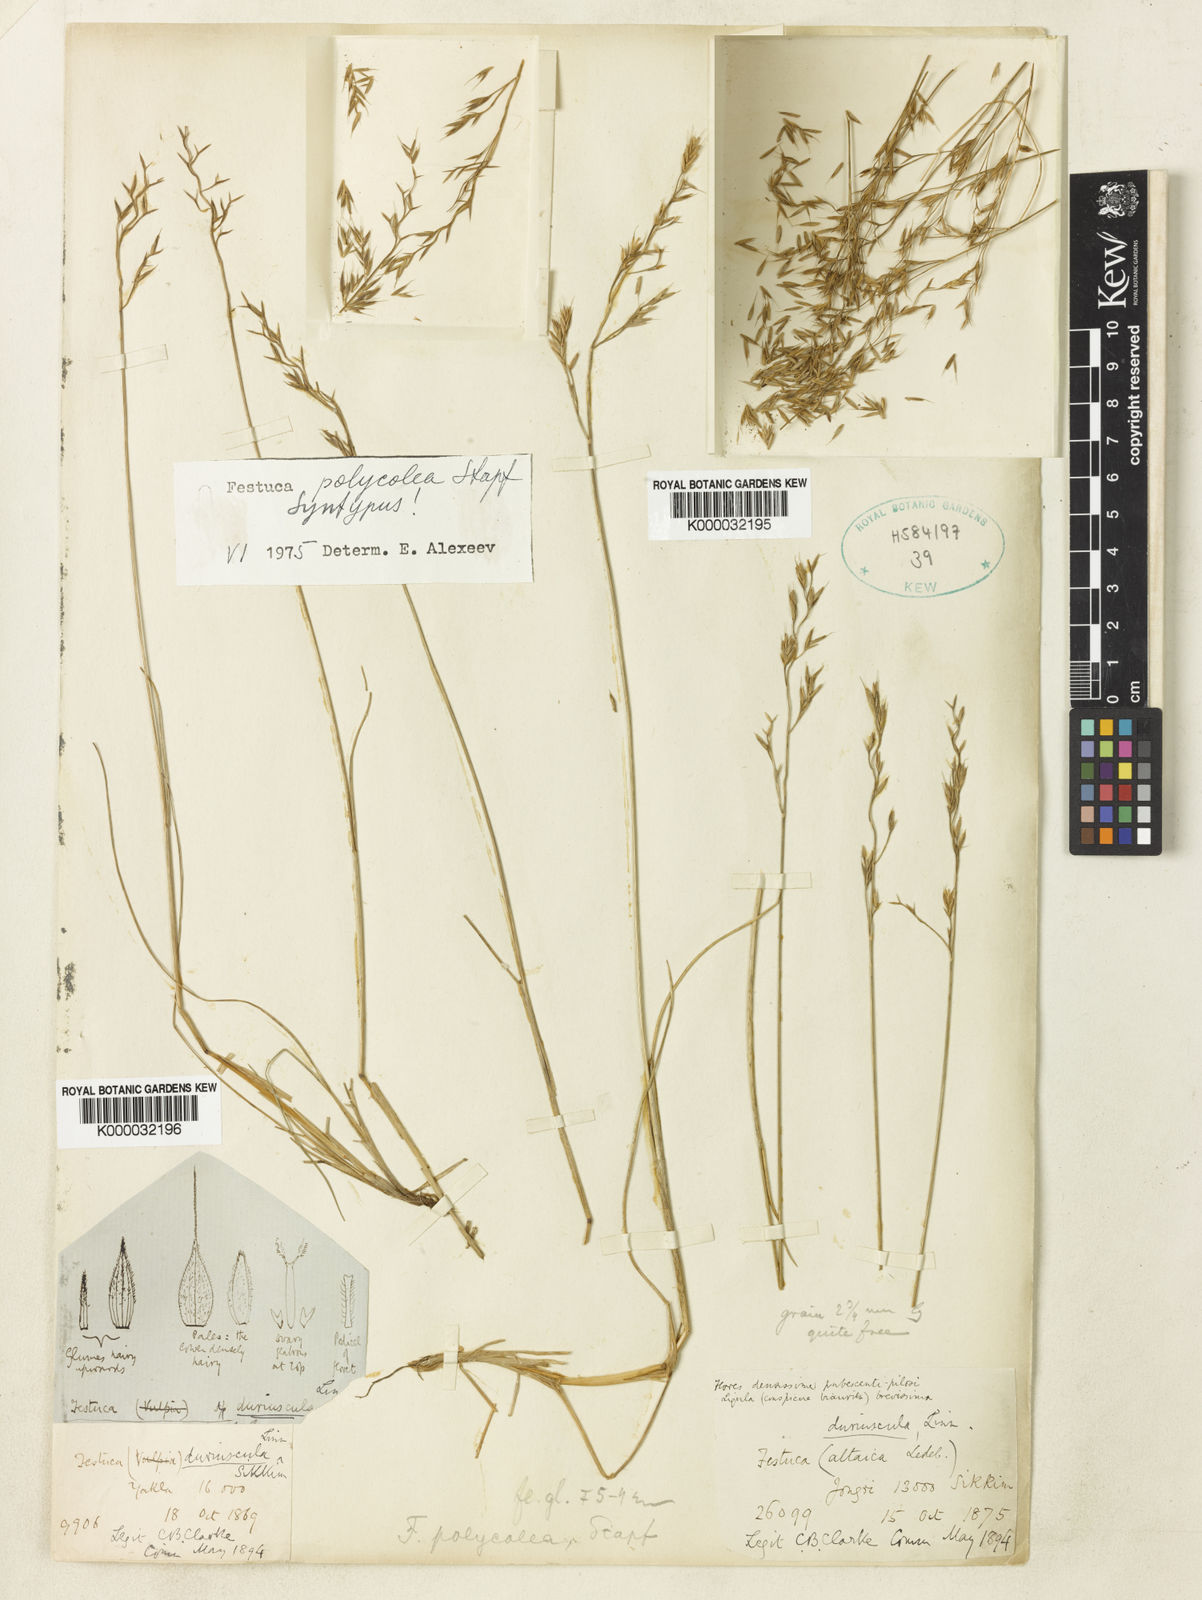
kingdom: Plantae
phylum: Tracheophyta
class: Liliopsida
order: Poales
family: Poaceae
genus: Festuca
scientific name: Festuca polycolea
